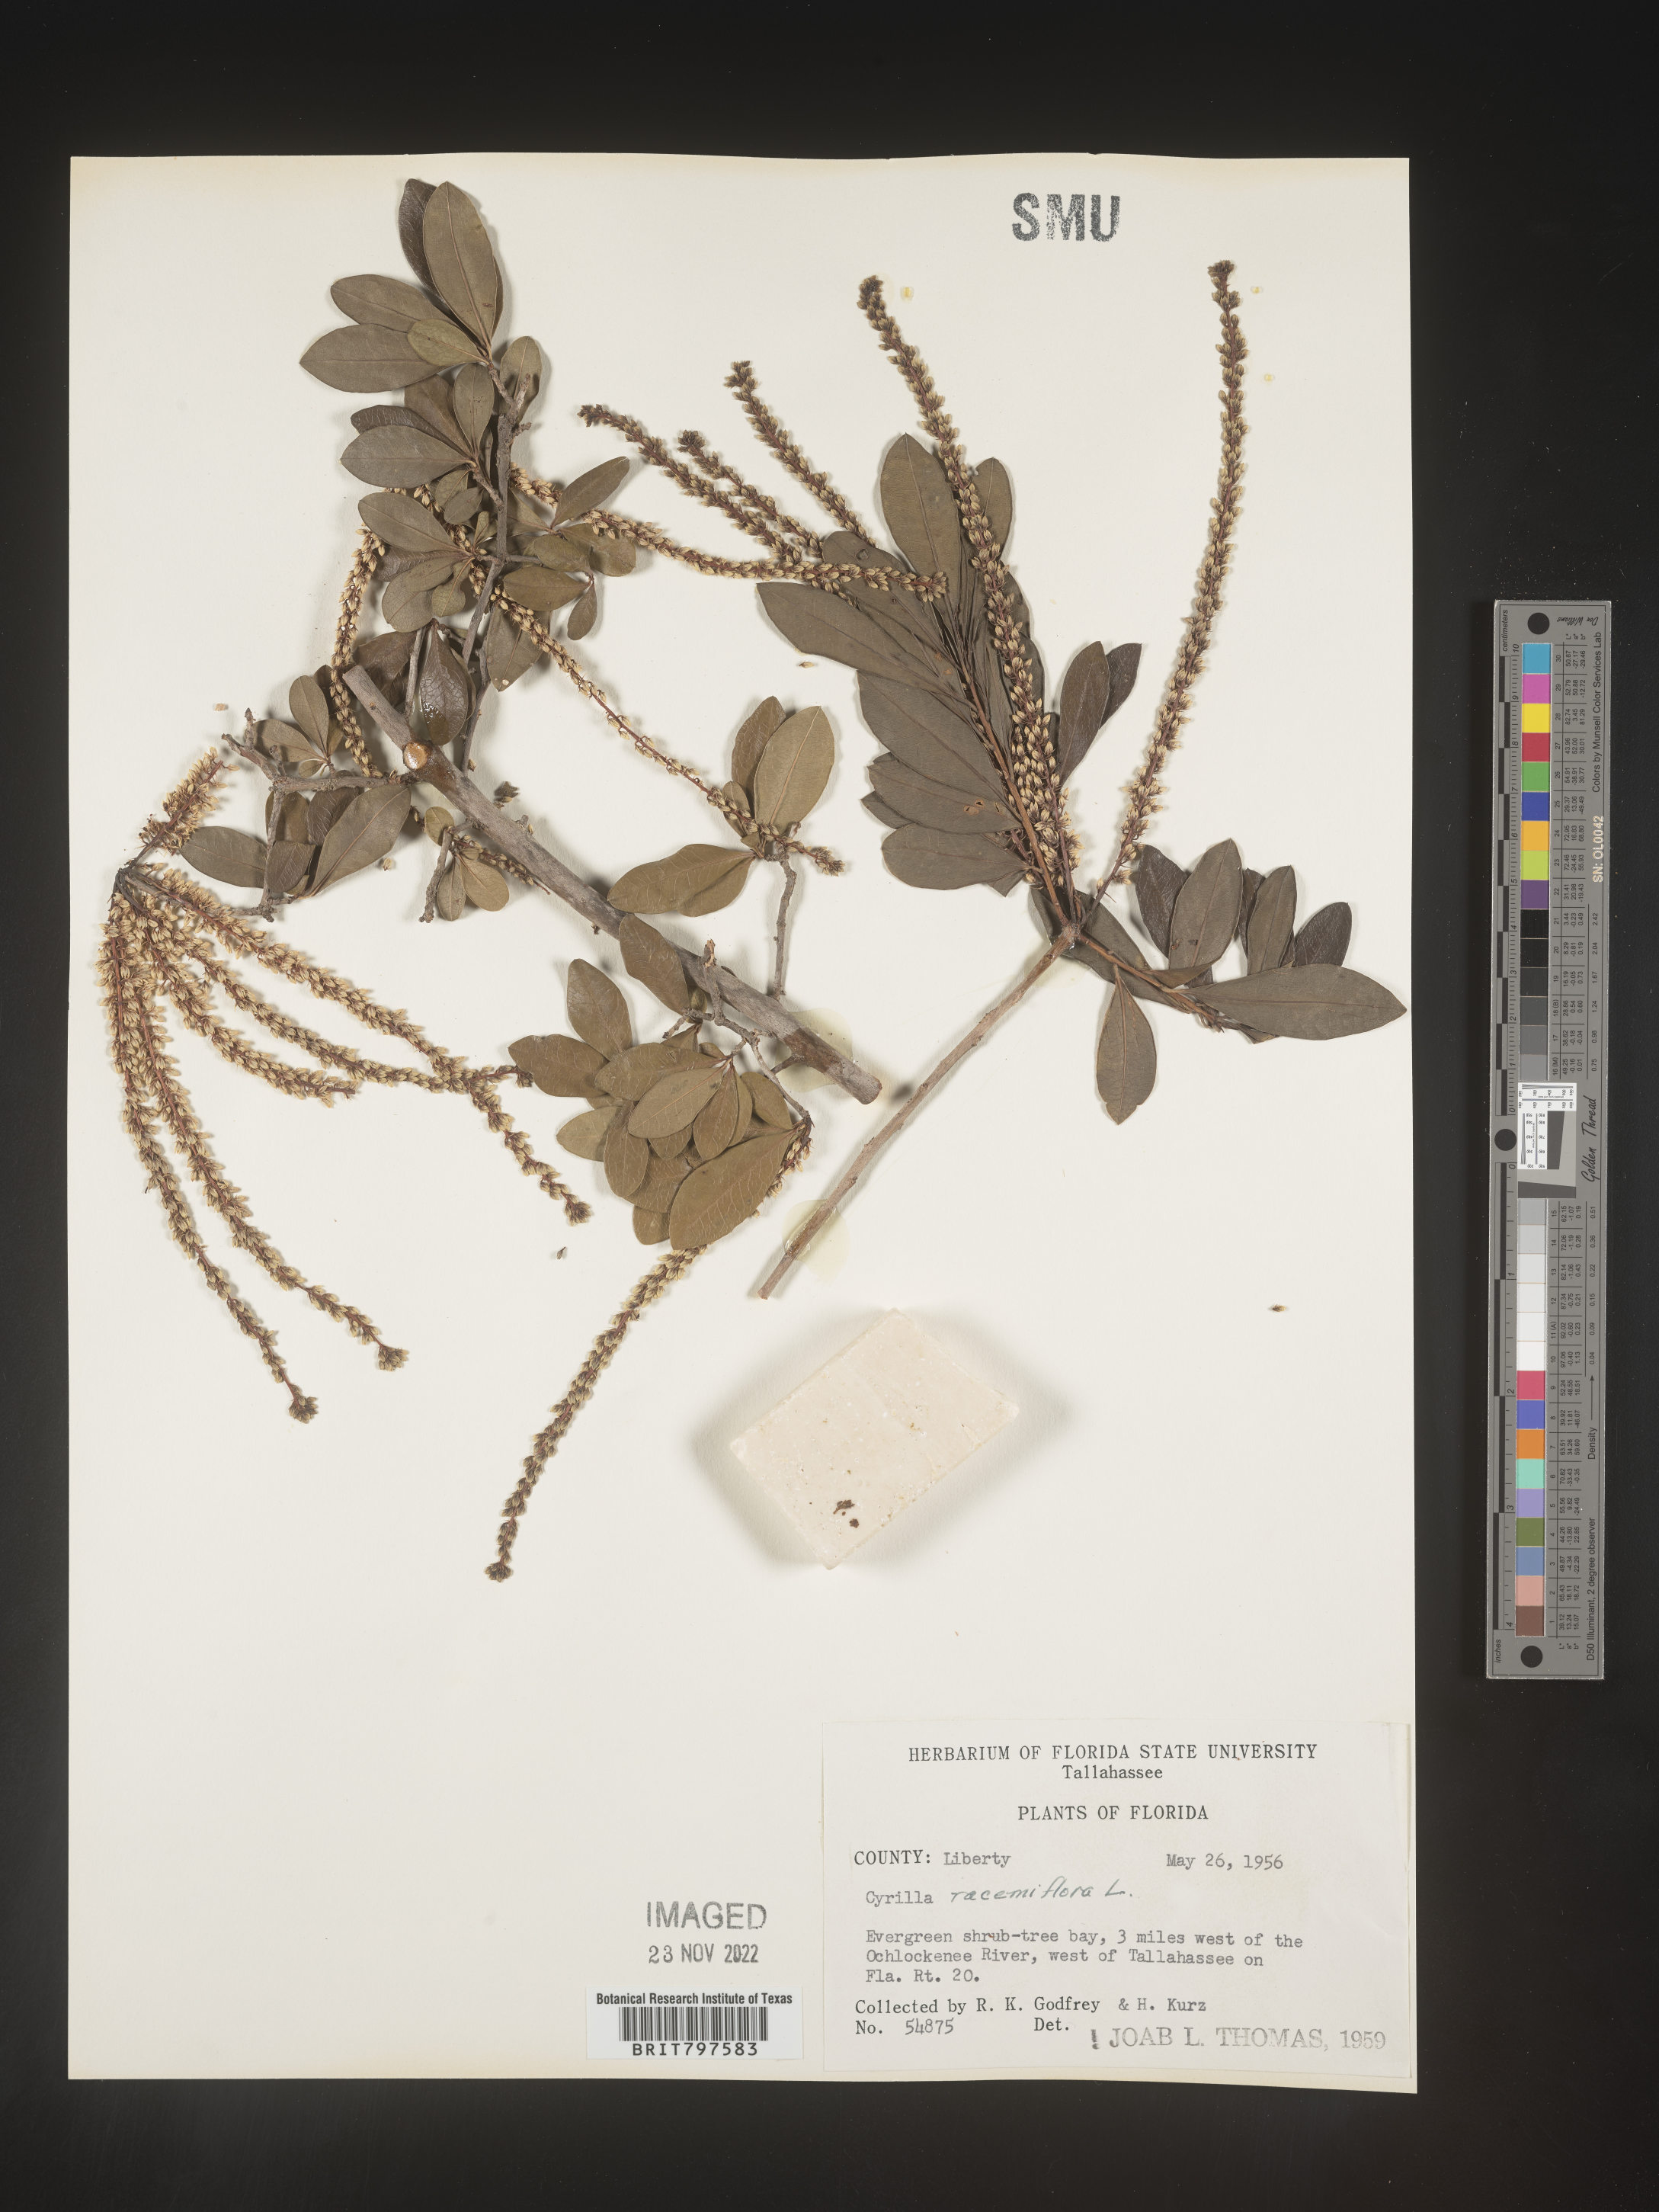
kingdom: Plantae
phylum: Tracheophyta
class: Magnoliopsida
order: Ericales
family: Cyrillaceae
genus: Cyrilla
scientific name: Cyrilla racemiflora
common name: Black titi
